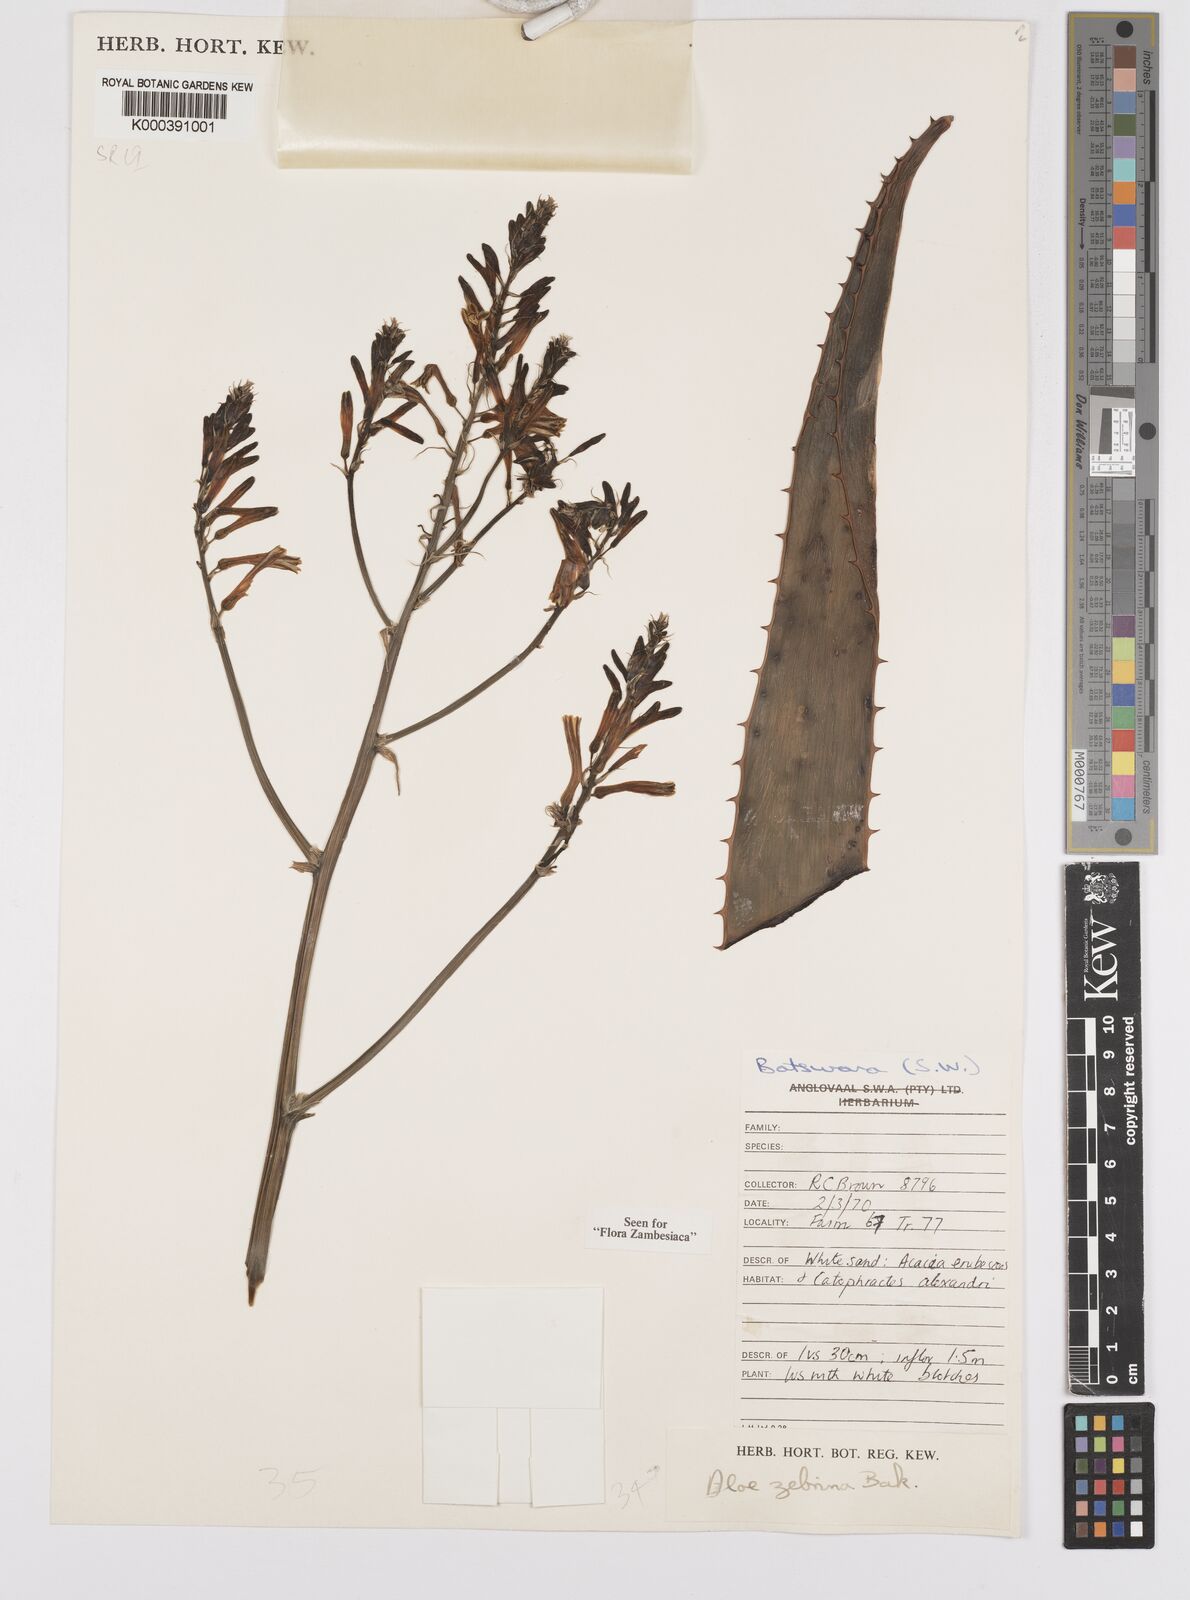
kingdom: Plantae
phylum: Tracheophyta
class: Liliopsida
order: Asparagales
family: Asphodelaceae
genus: Aloe
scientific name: Aloe zebrina
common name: Zebra-leaf aloe
